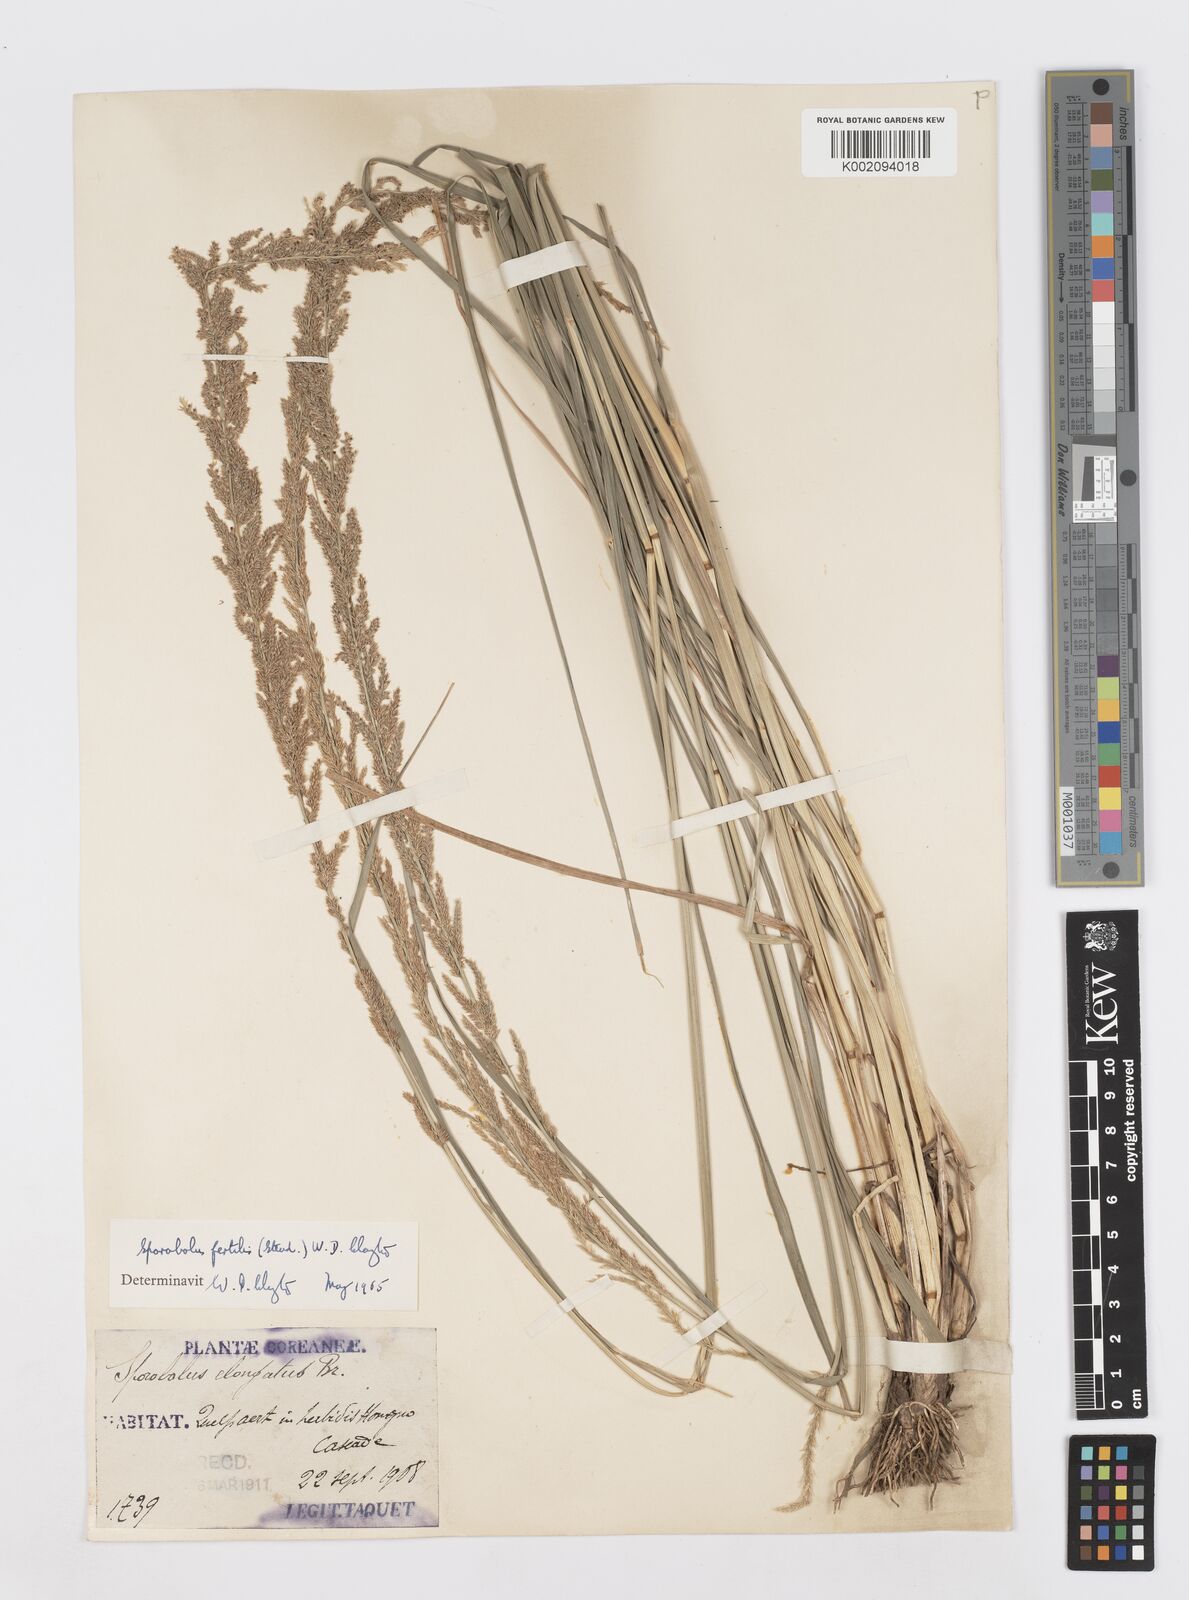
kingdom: Plantae
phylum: Tracheophyta
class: Liliopsida
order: Poales
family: Poaceae
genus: Sporobolus
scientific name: Sporobolus fertilis
